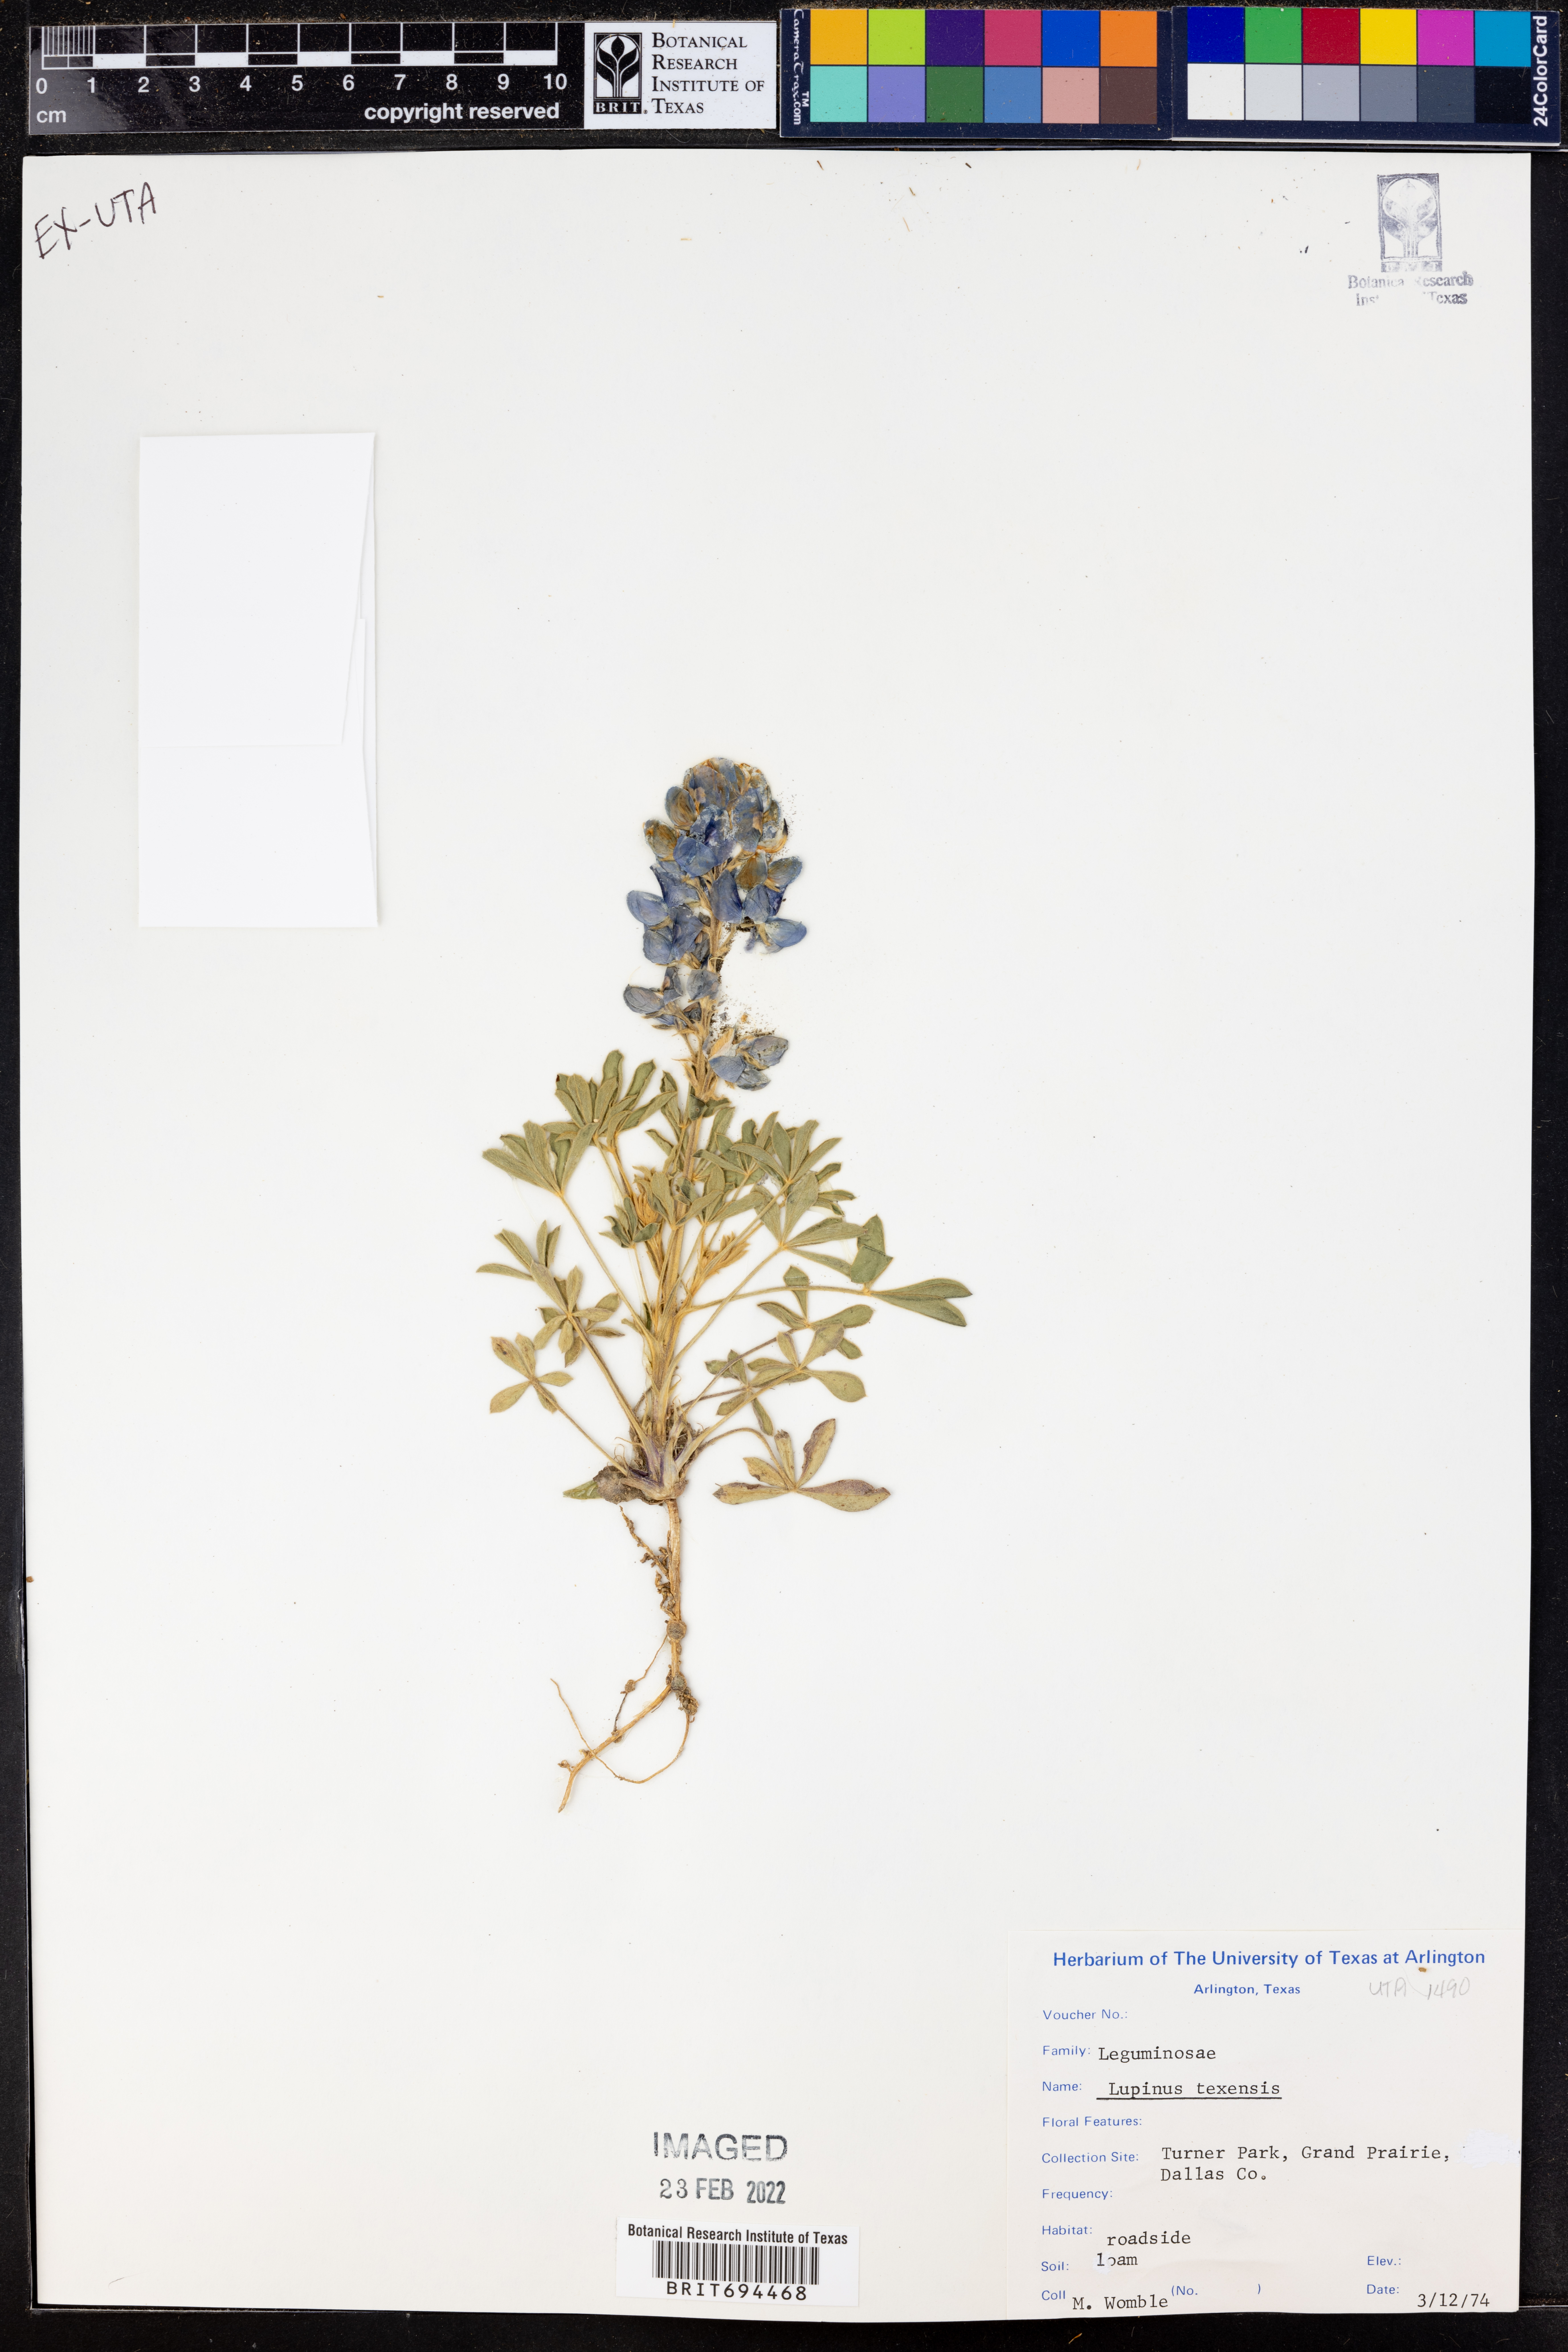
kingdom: Plantae
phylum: Tracheophyta
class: Magnoliopsida
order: Fabales
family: Fabaceae
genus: Lupinus
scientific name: Lupinus texensis
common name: Texas bluebonnet
